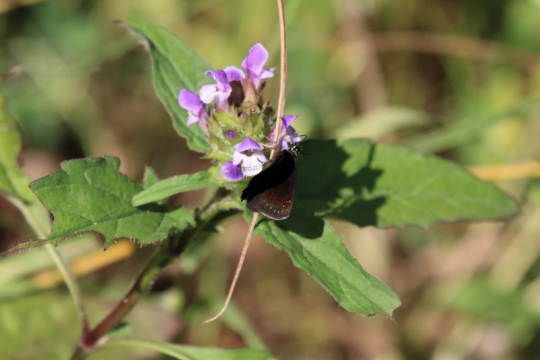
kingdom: Animalia
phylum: Arthropoda
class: Insecta
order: Lepidoptera
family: Hesperiidae
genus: Pholisora
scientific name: Pholisora catullus
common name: Common Sootywing
